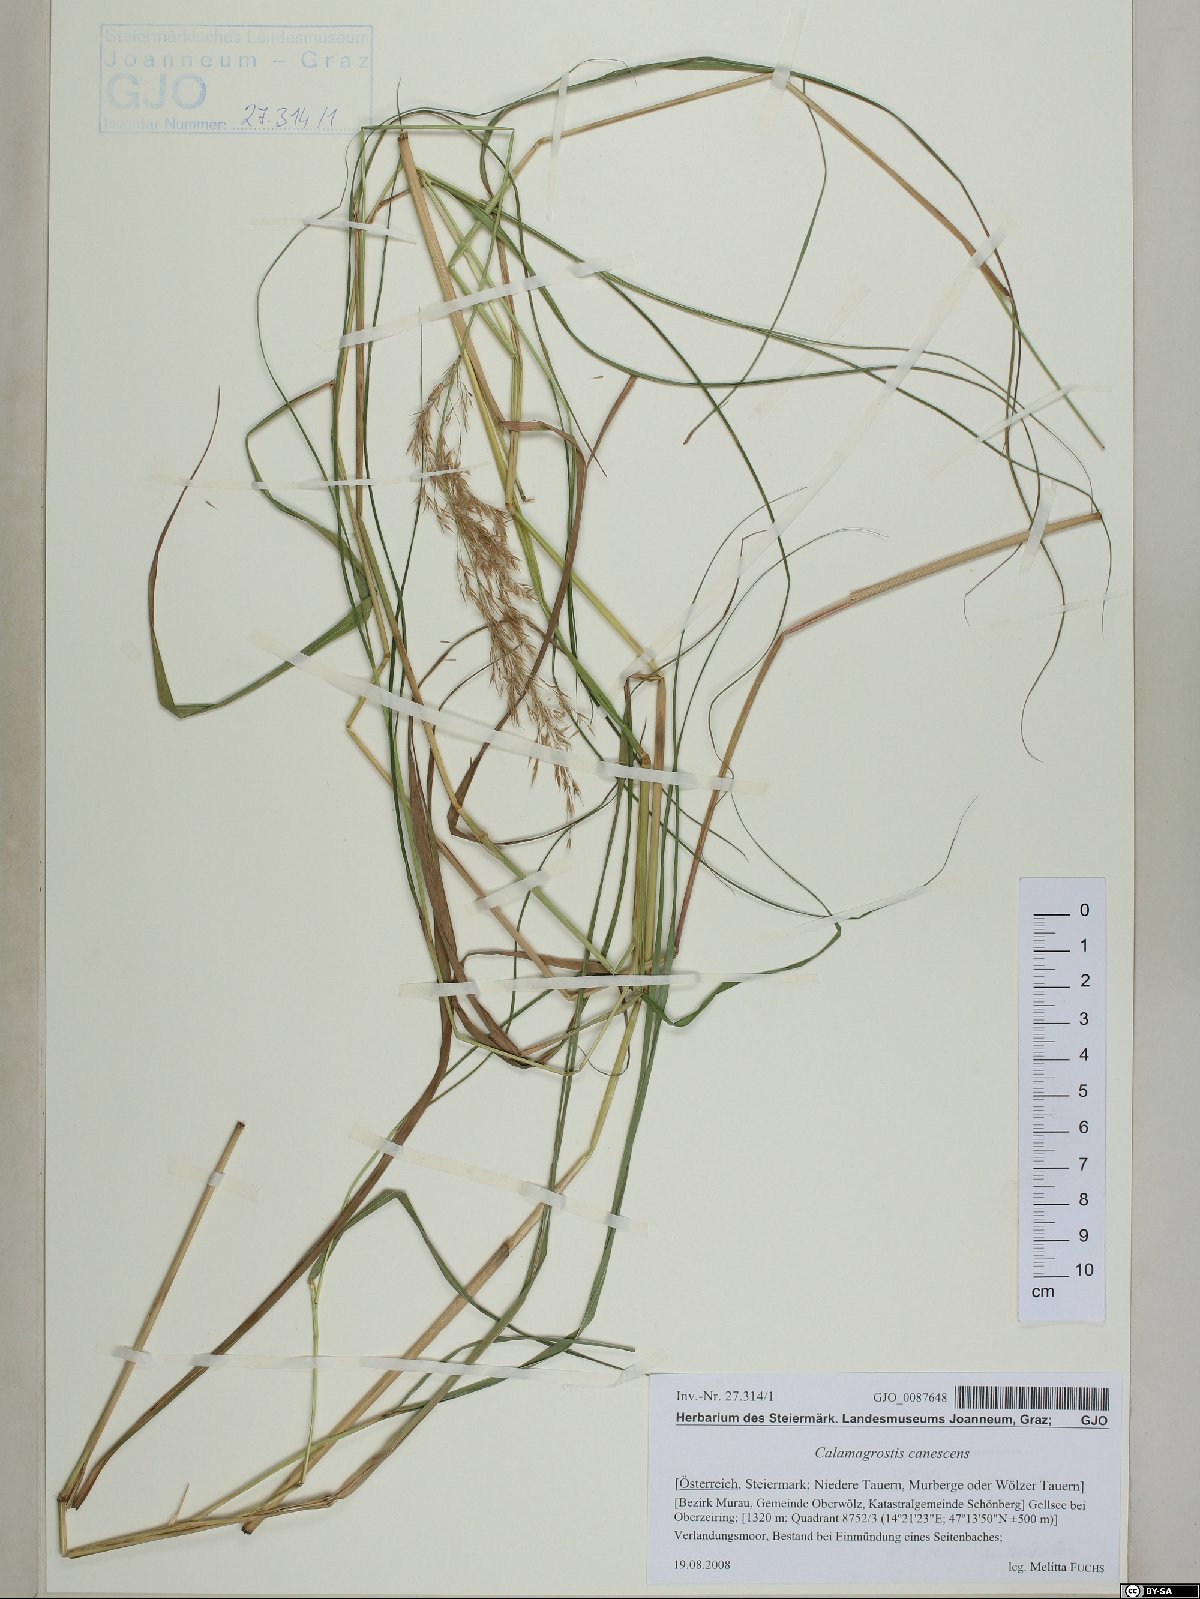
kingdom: Plantae
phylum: Tracheophyta
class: Liliopsida
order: Poales
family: Poaceae
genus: Calamagrostis
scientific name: Calamagrostis canescens
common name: Purple small-reed
